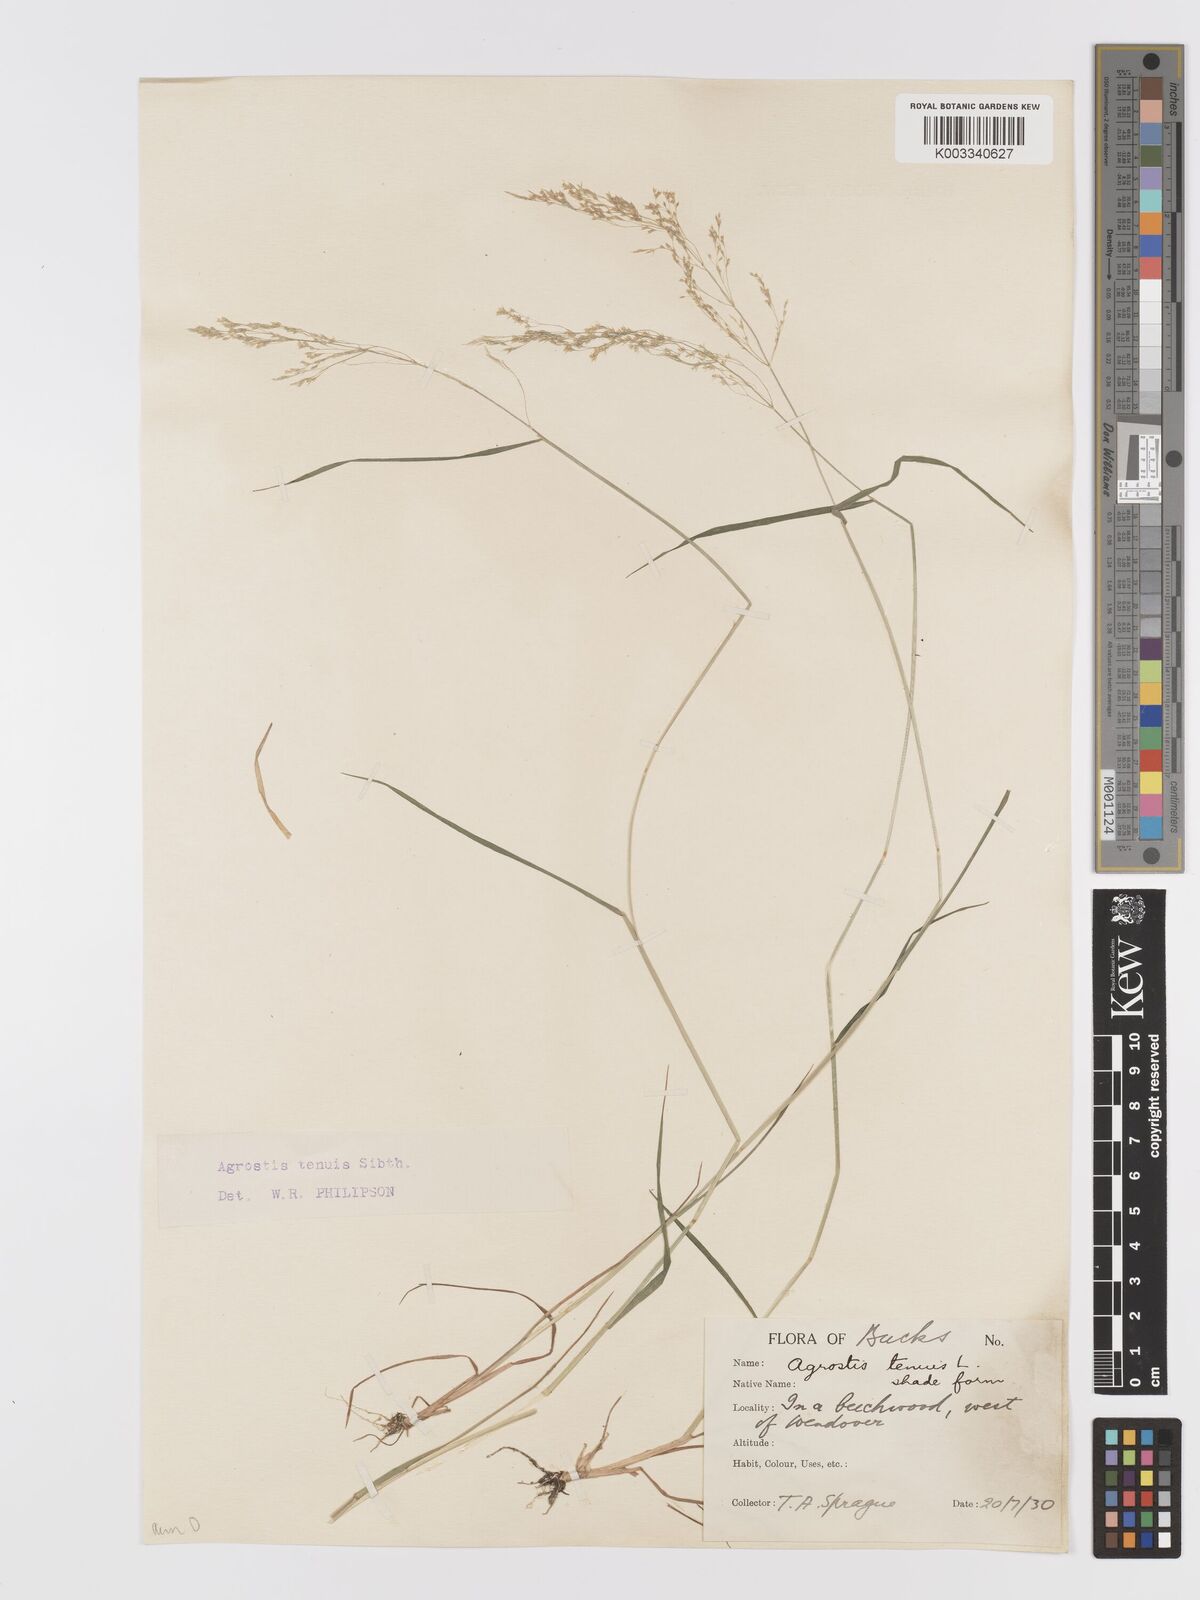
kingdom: Plantae
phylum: Tracheophyta
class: Liliopsida
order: Poales
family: Poaceae
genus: Agrostis
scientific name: Agrostis capillaris
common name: Colonial bentgrass
